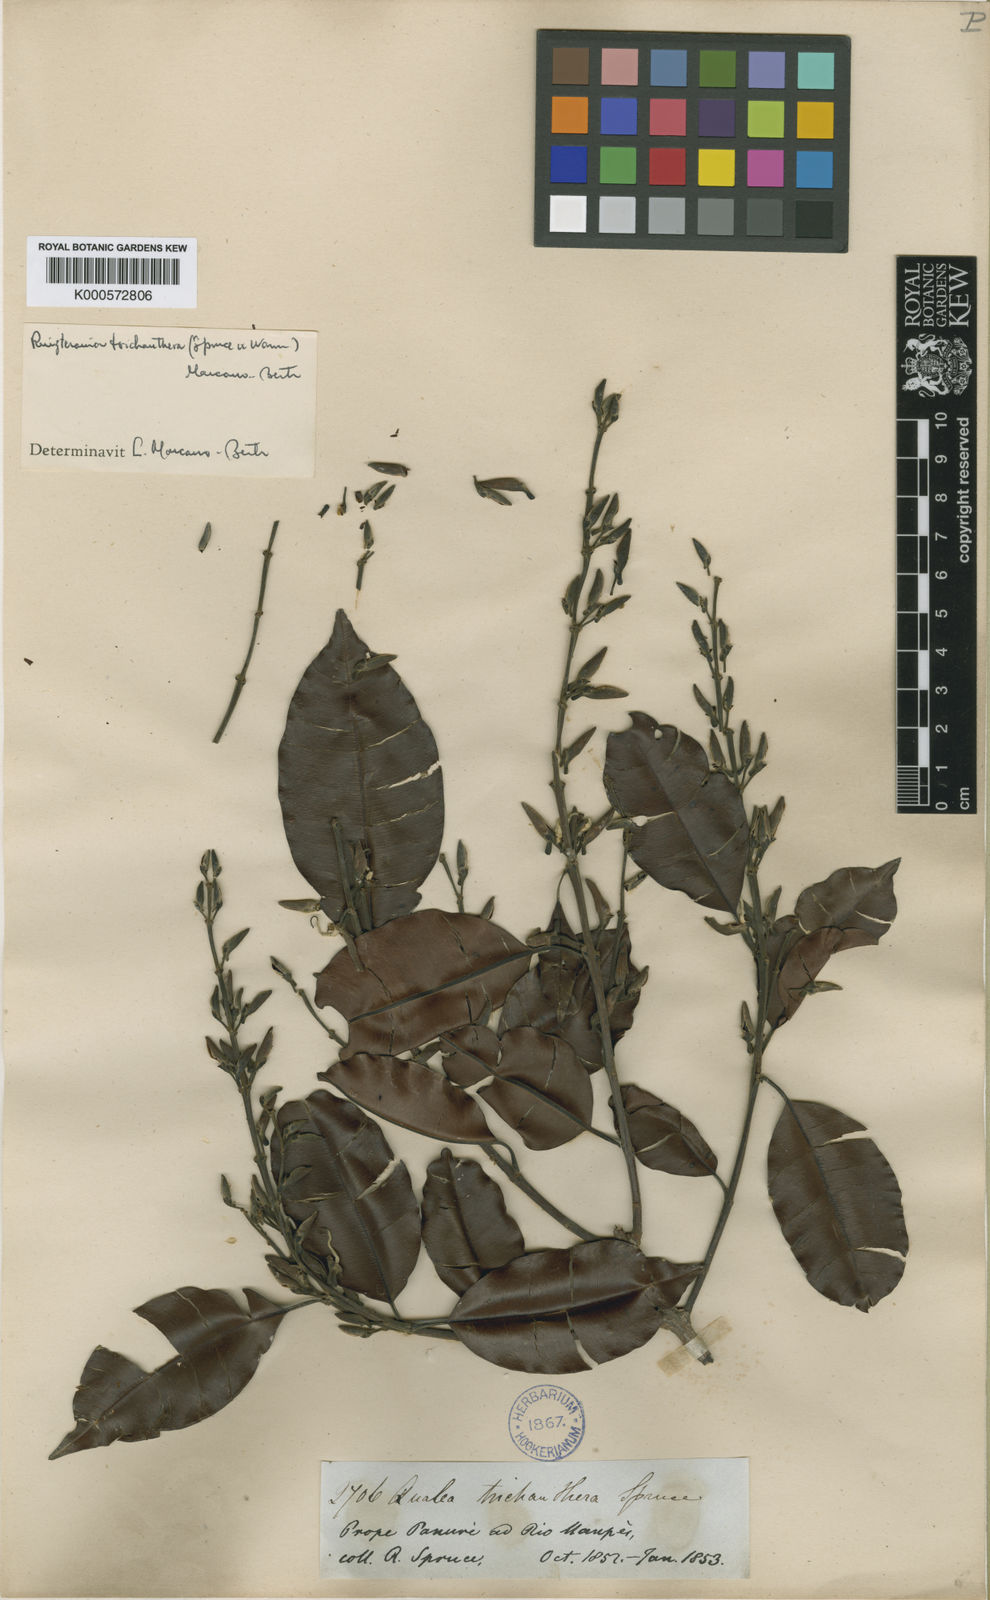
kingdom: Plantae
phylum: Tracheophyta
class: Magnoliopsida
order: Myrtales
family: Vochysiaceae
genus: Ruizterania
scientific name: Ruizterania trichanthera
